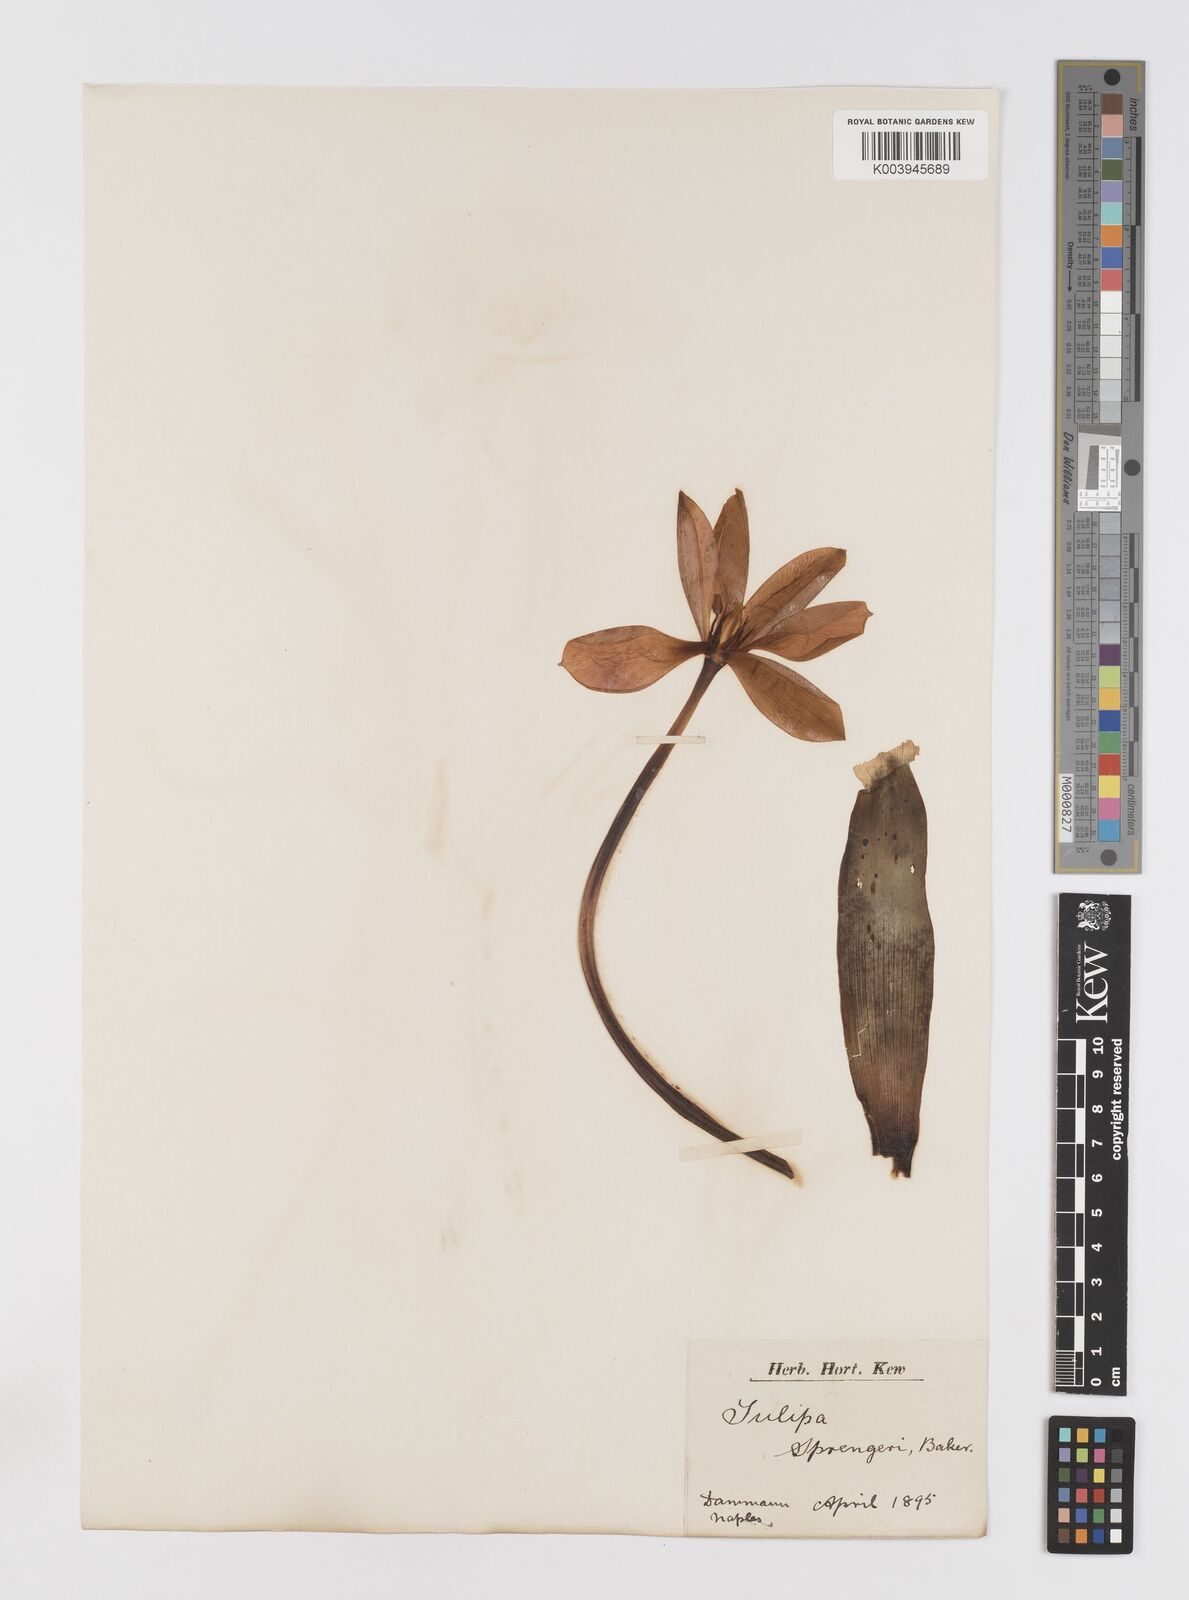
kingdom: Plantae
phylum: Tracheophyta
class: Liliopsida
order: Liliales
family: Liliaceae
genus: Tulipa
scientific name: Tulipa sprengeri
